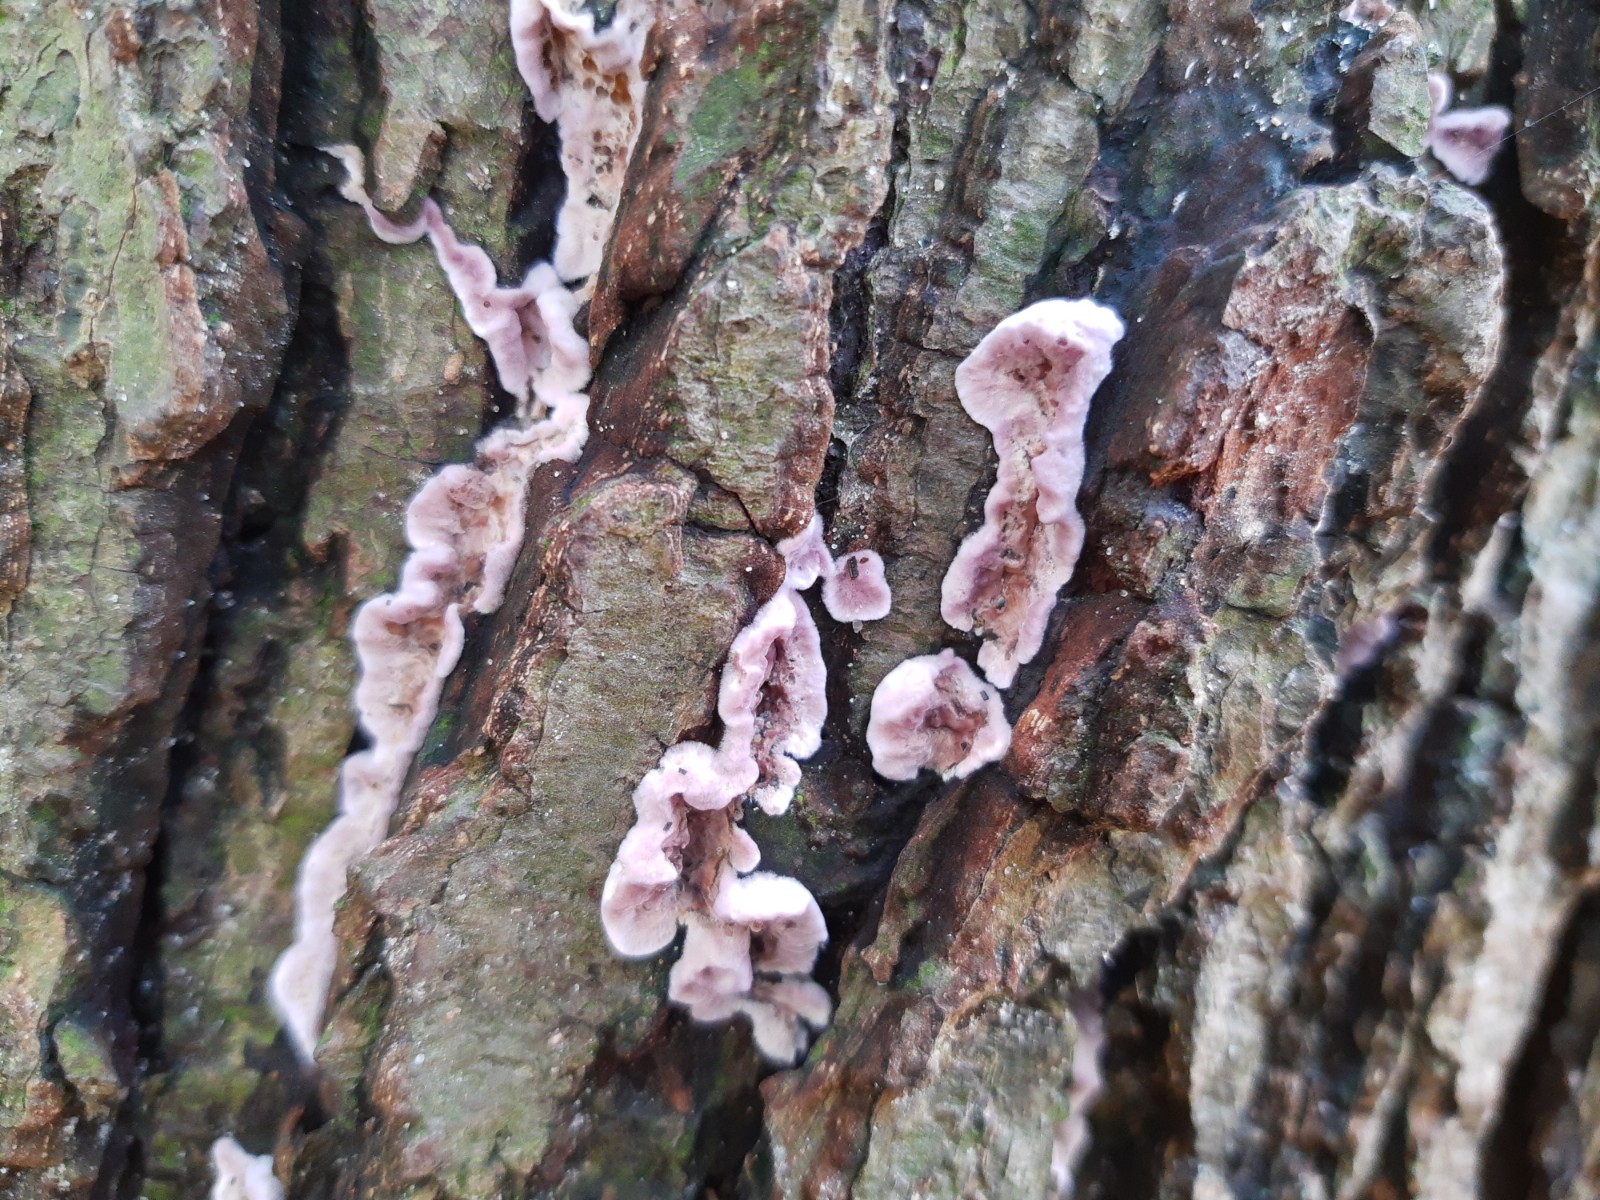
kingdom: Fungi
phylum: Basidiomycota
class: Agaricomycetes
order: Agaricales
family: Cyphellaceae
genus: Chondrostereum
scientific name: Chondrostereum purpureum
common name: purpurlædersvamp
